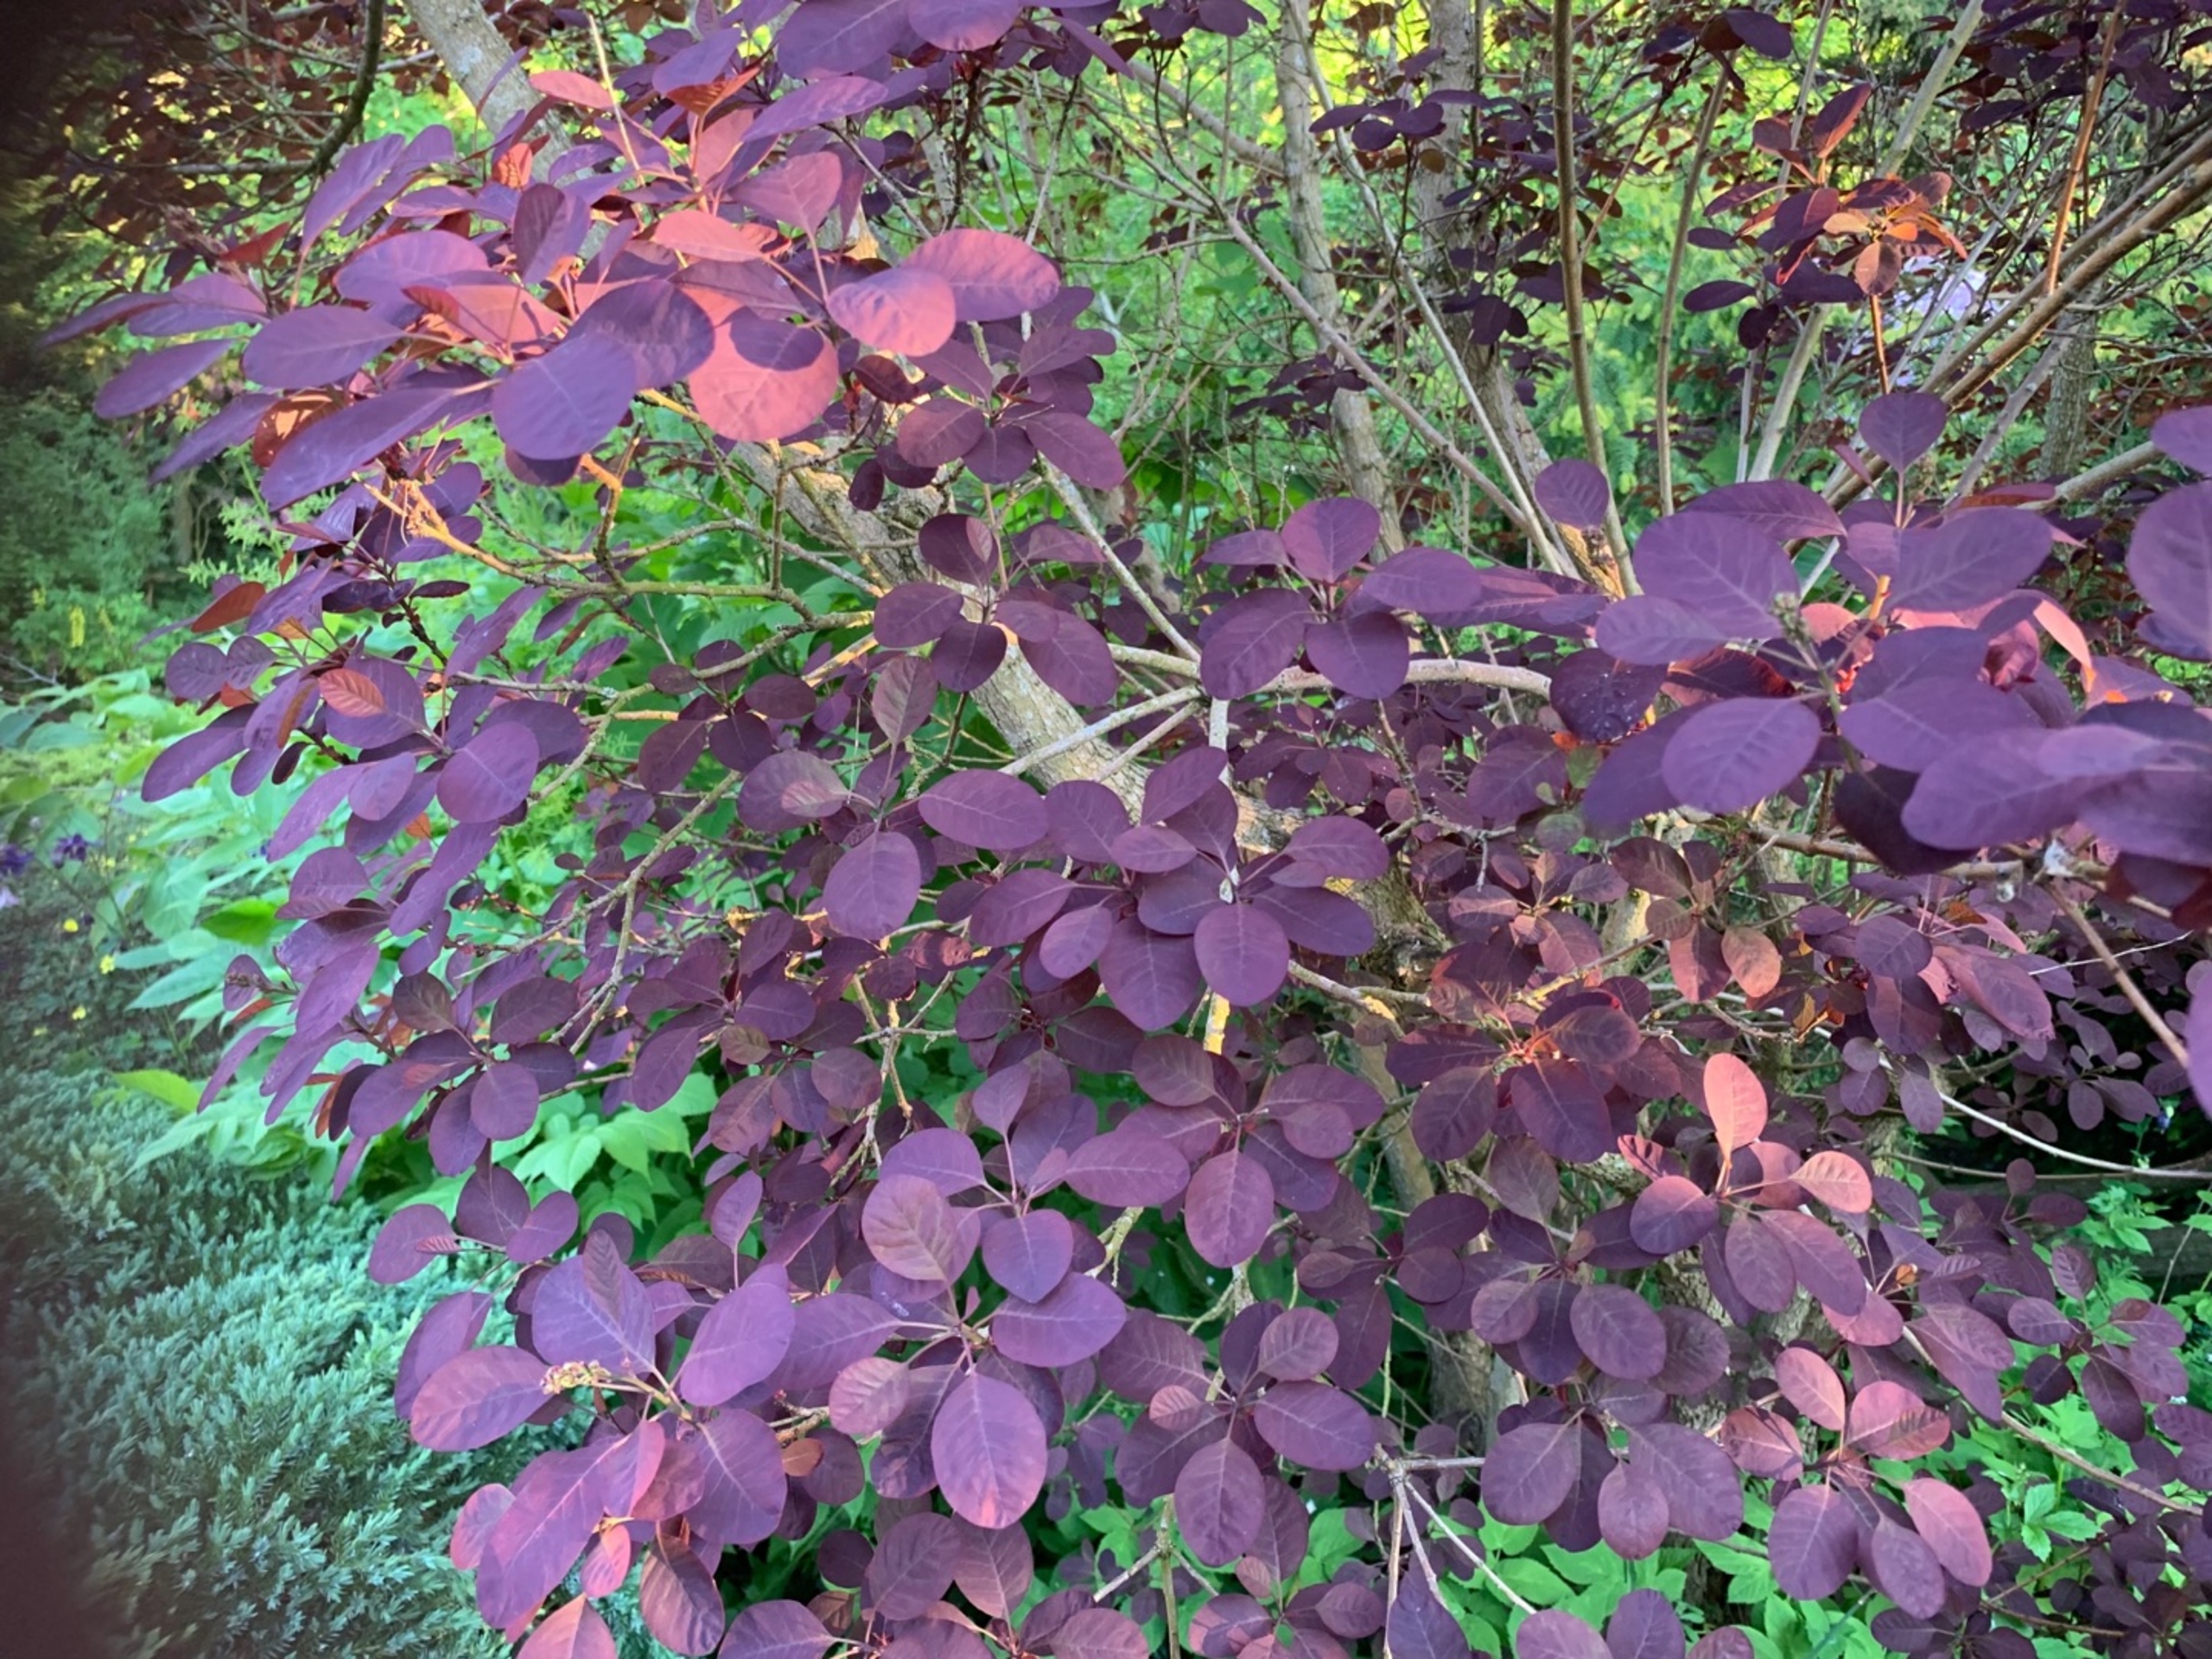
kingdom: Animalia
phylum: Chordata
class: Aves
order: Piciformes
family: Picidae
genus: Dendrocopos
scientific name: Dendrocopos major
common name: Stor flagspætte
